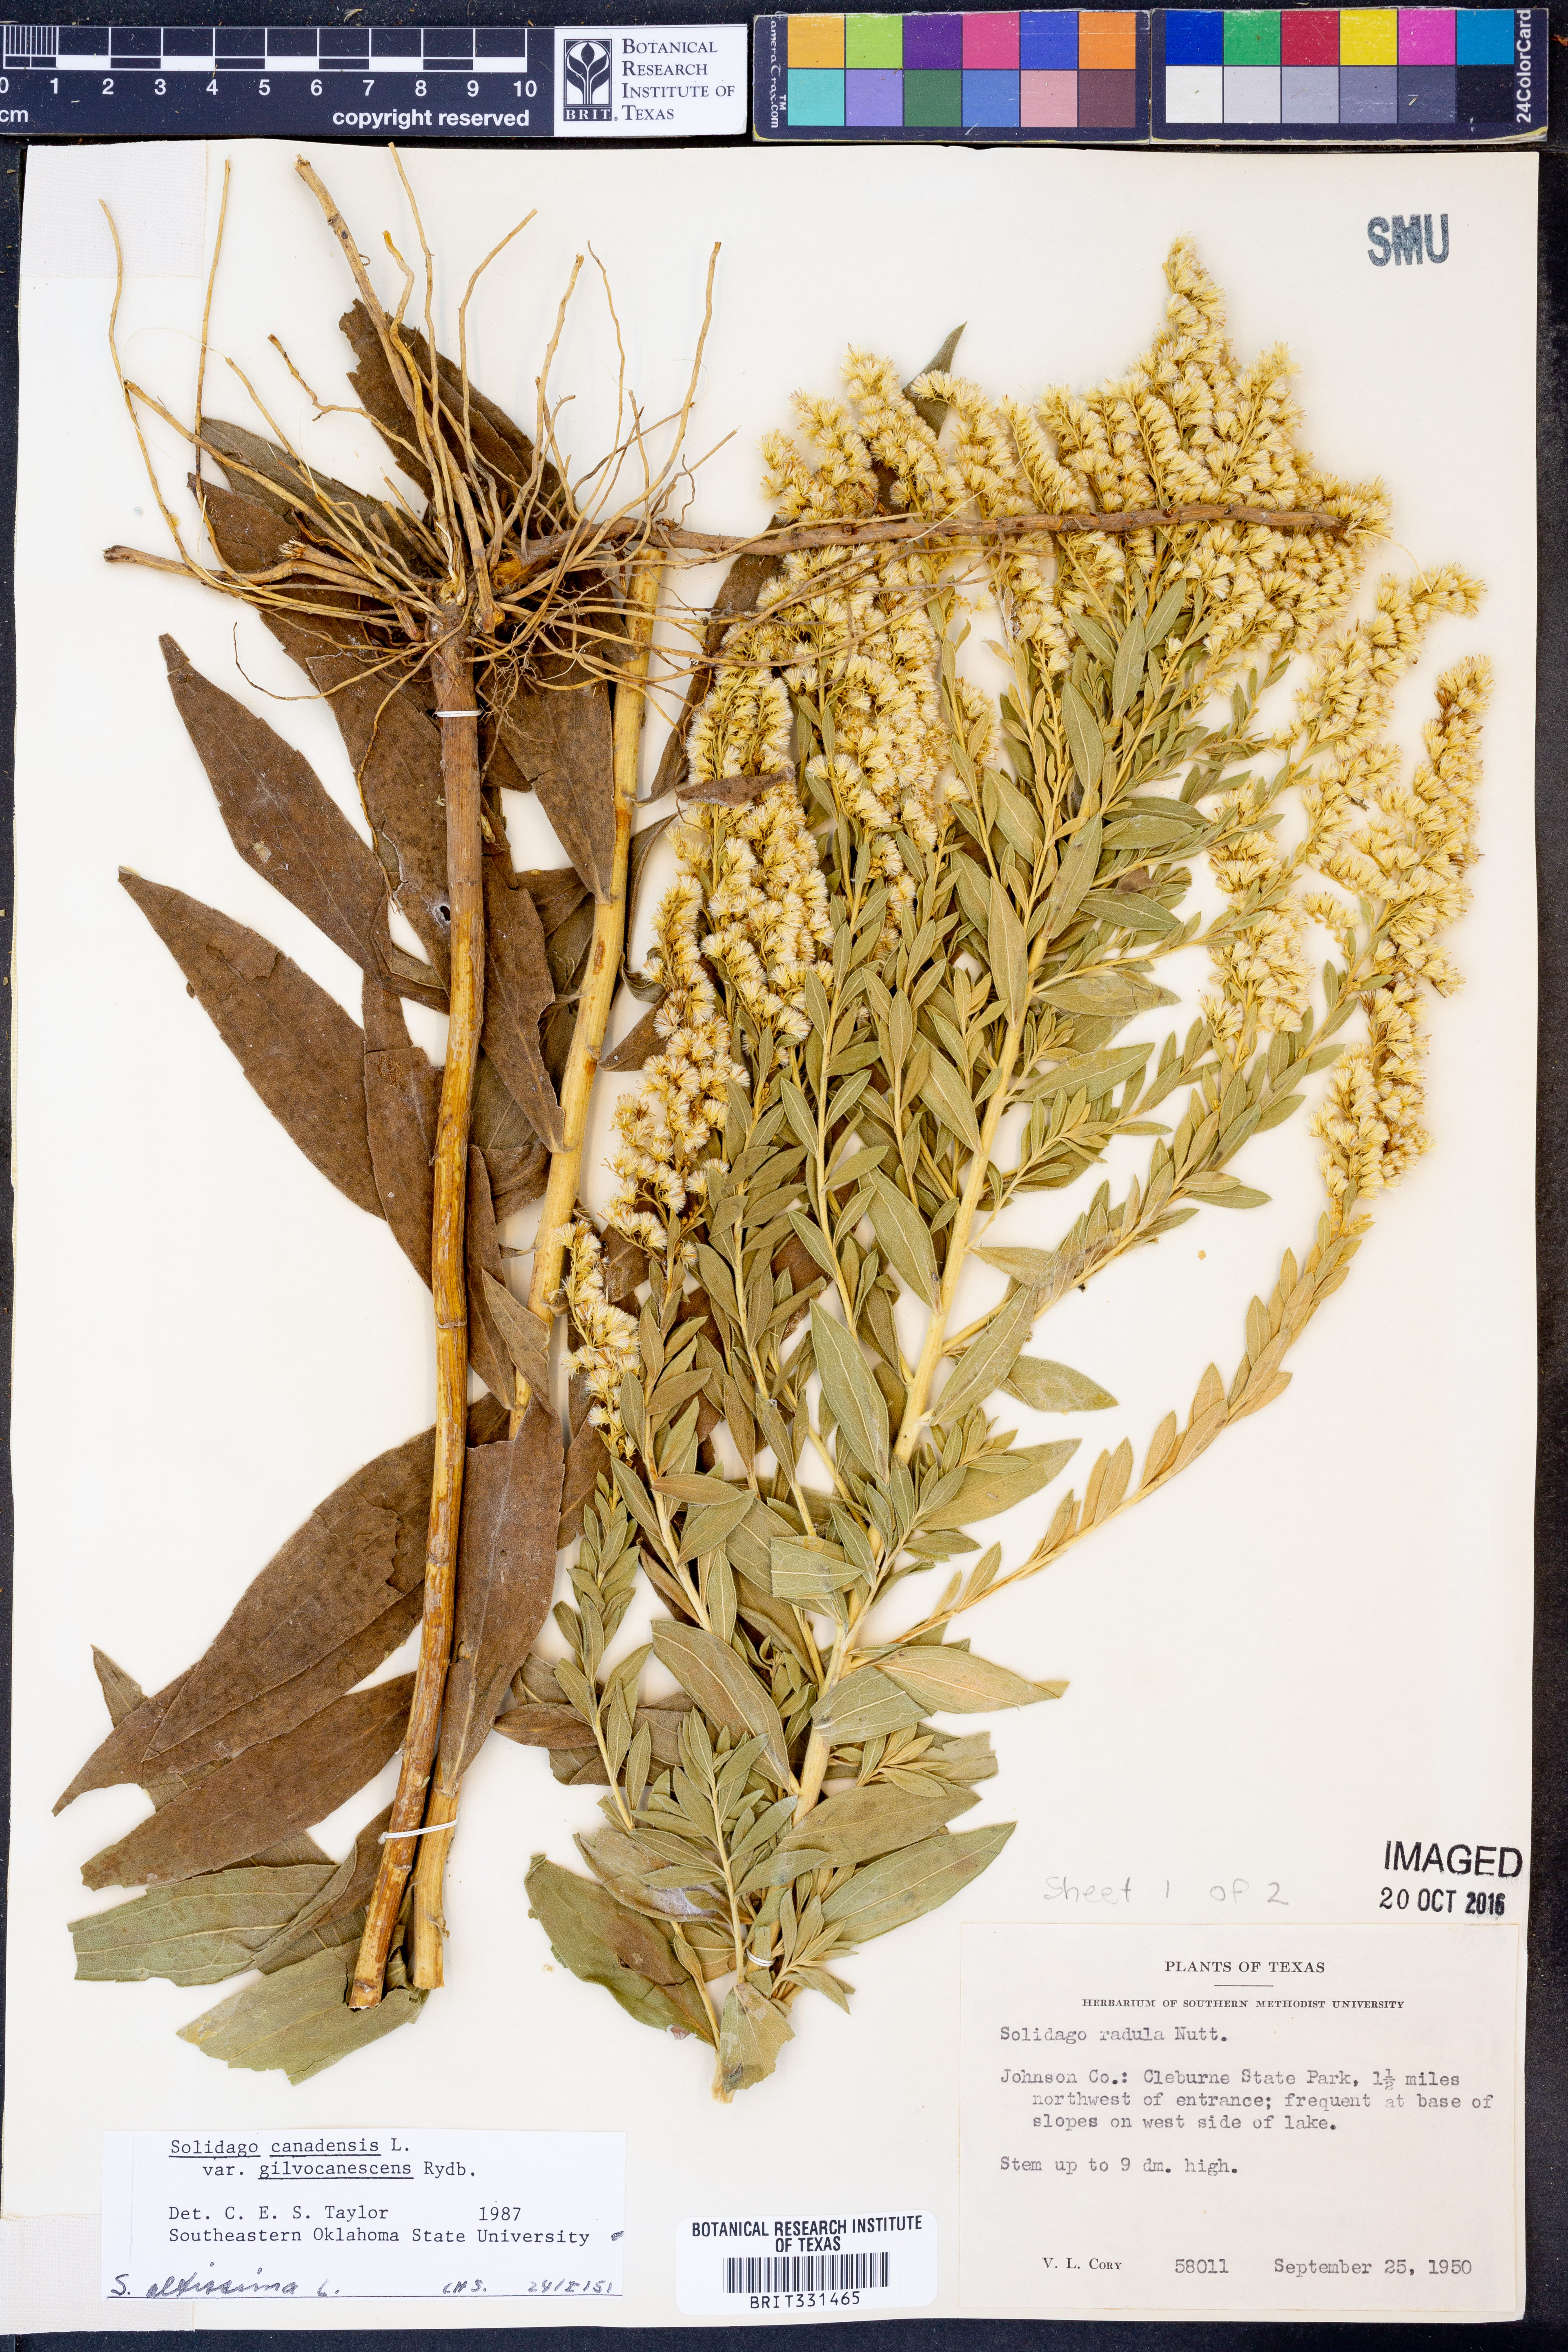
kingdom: Plantae
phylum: Tracheophyta
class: Magnoliopsida
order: Asterales
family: Asteraceae
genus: Solidago
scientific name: Solidago altissima
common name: Late goldenrod
